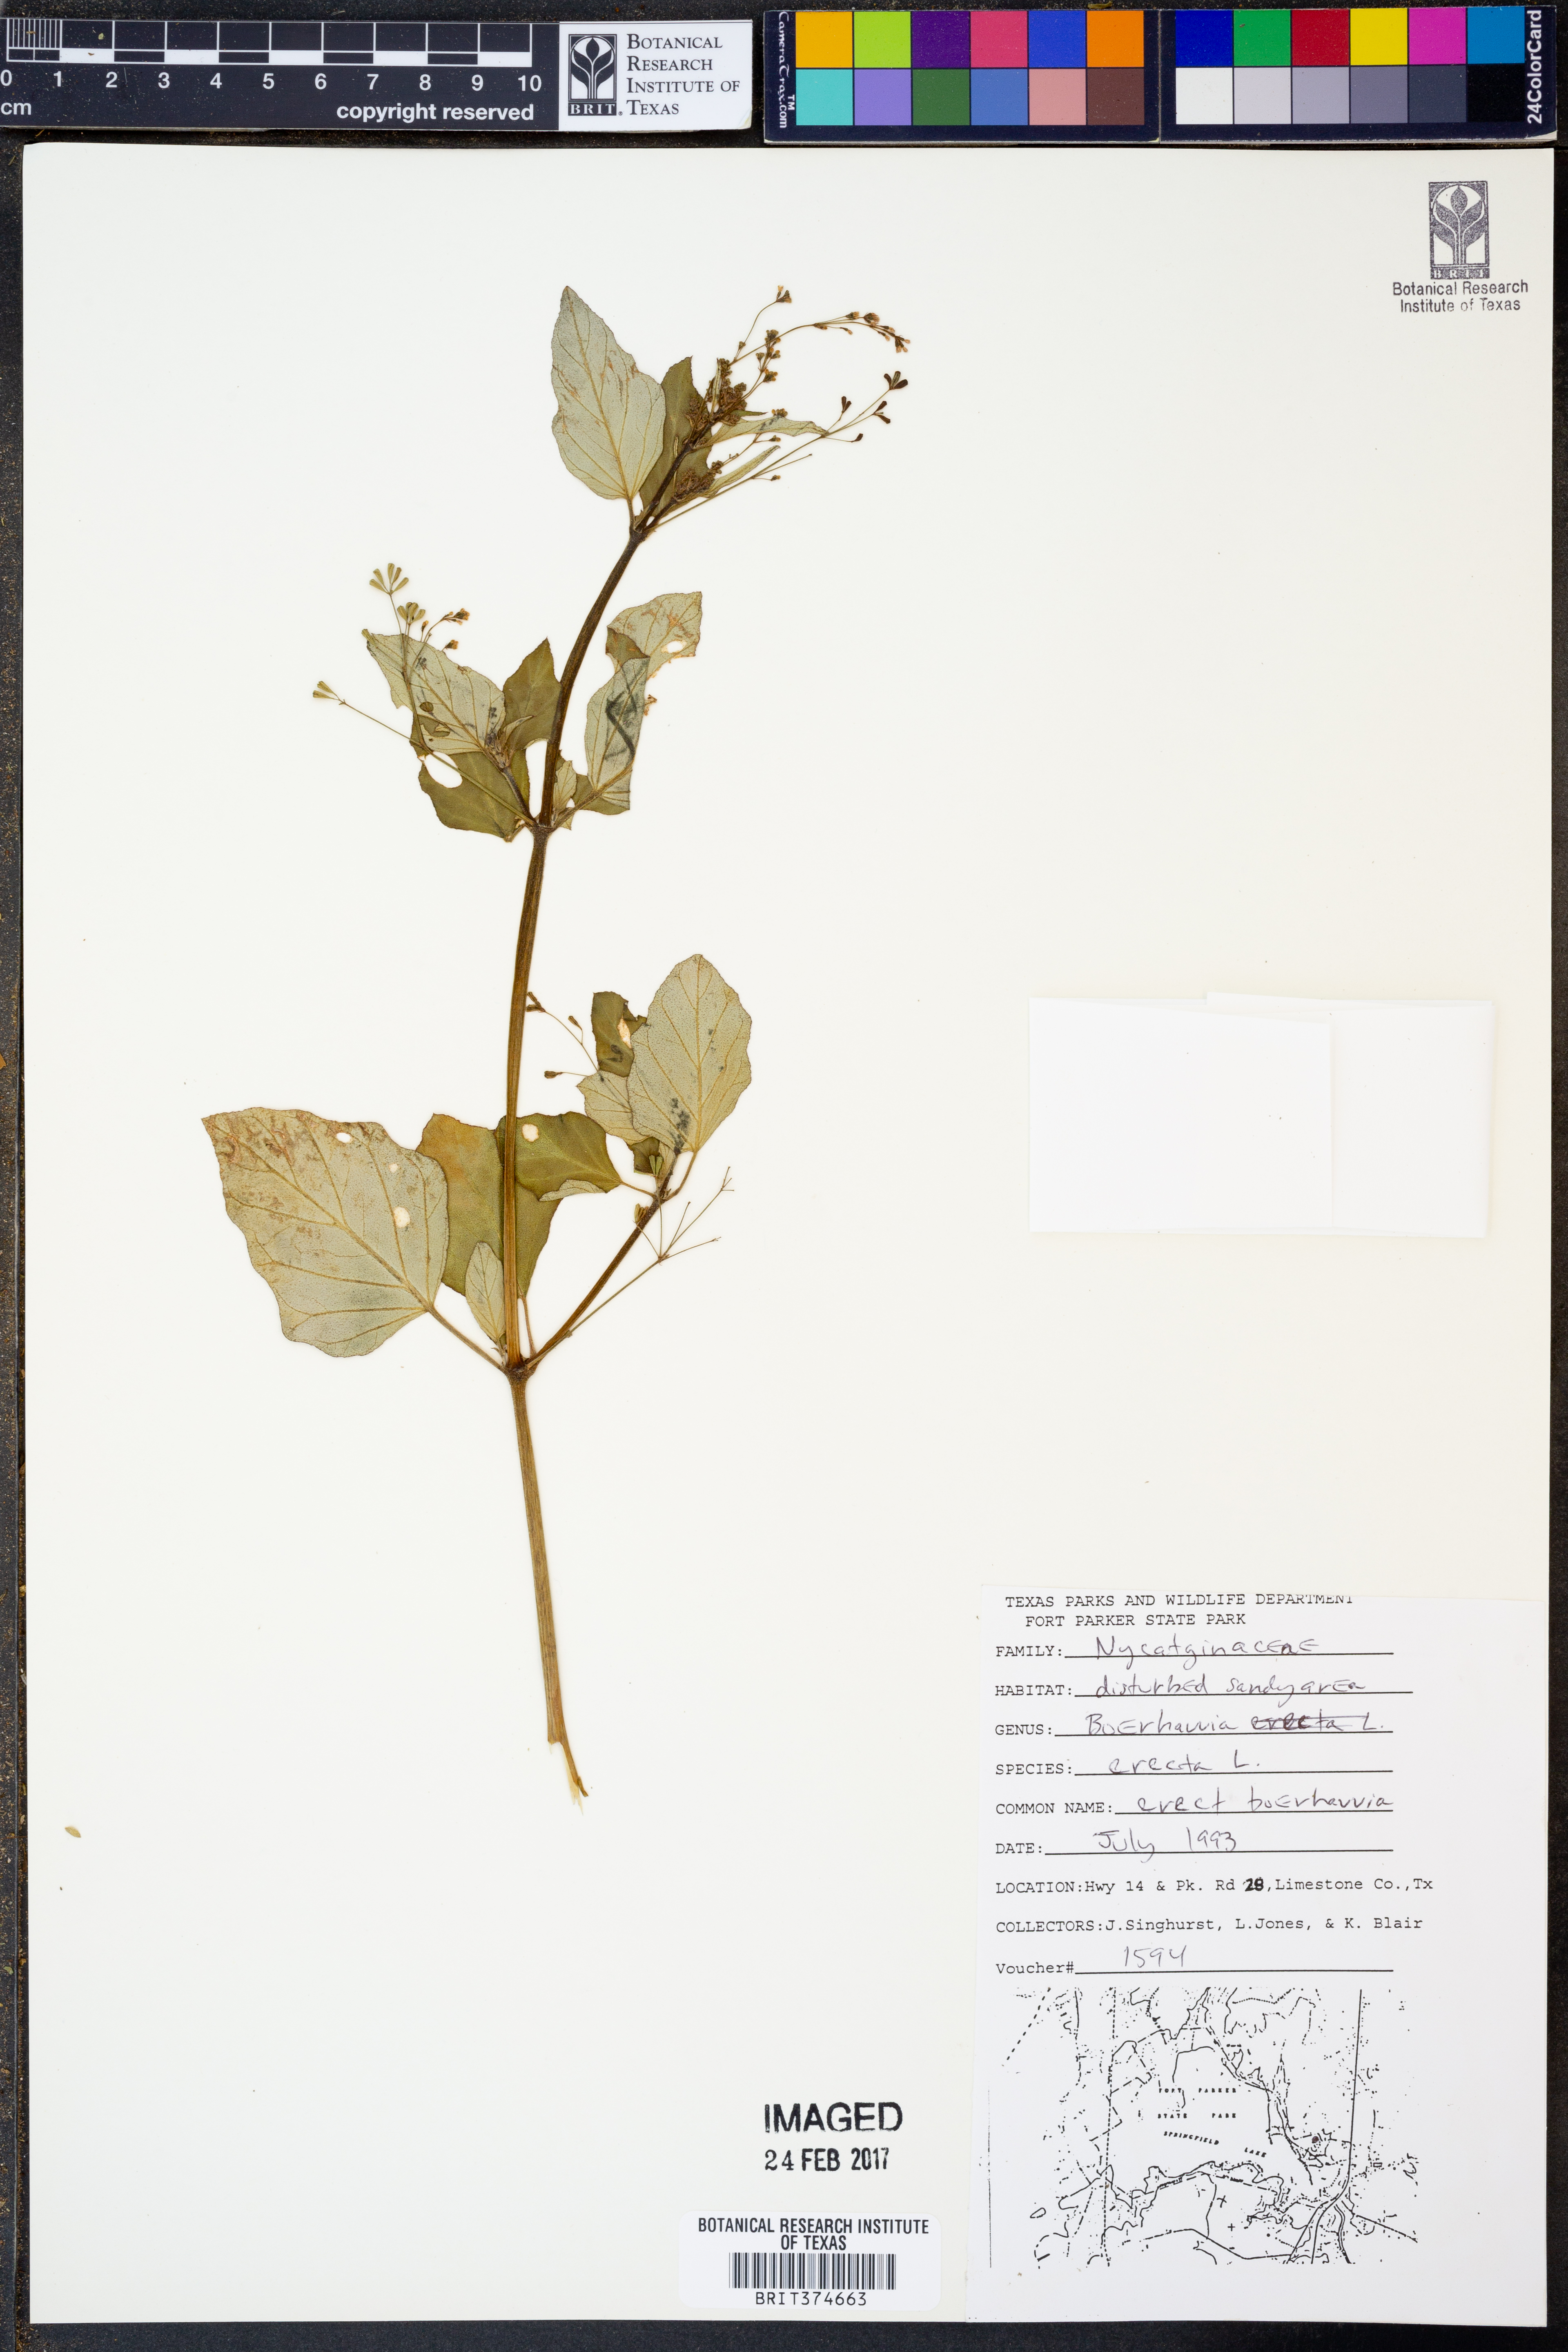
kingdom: Plantae
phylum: Tracheophyta
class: Magnoliopsida
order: Caryophyllales
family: Nyctaginaceae
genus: Boerhavia
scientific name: Boerhavia erecta
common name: Erect spiderling
